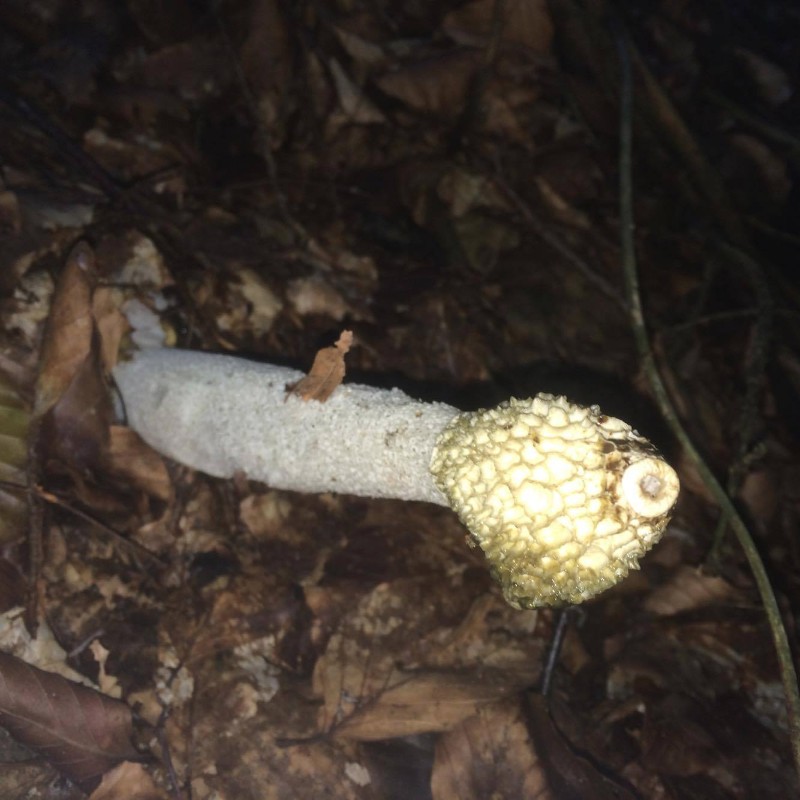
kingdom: Fungi
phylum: Basidiomycota
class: Agaricomycetes
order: Phallales
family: Phallaceae
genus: Phallus
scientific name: Phallus impudicus
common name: almindelig stinksvamp
